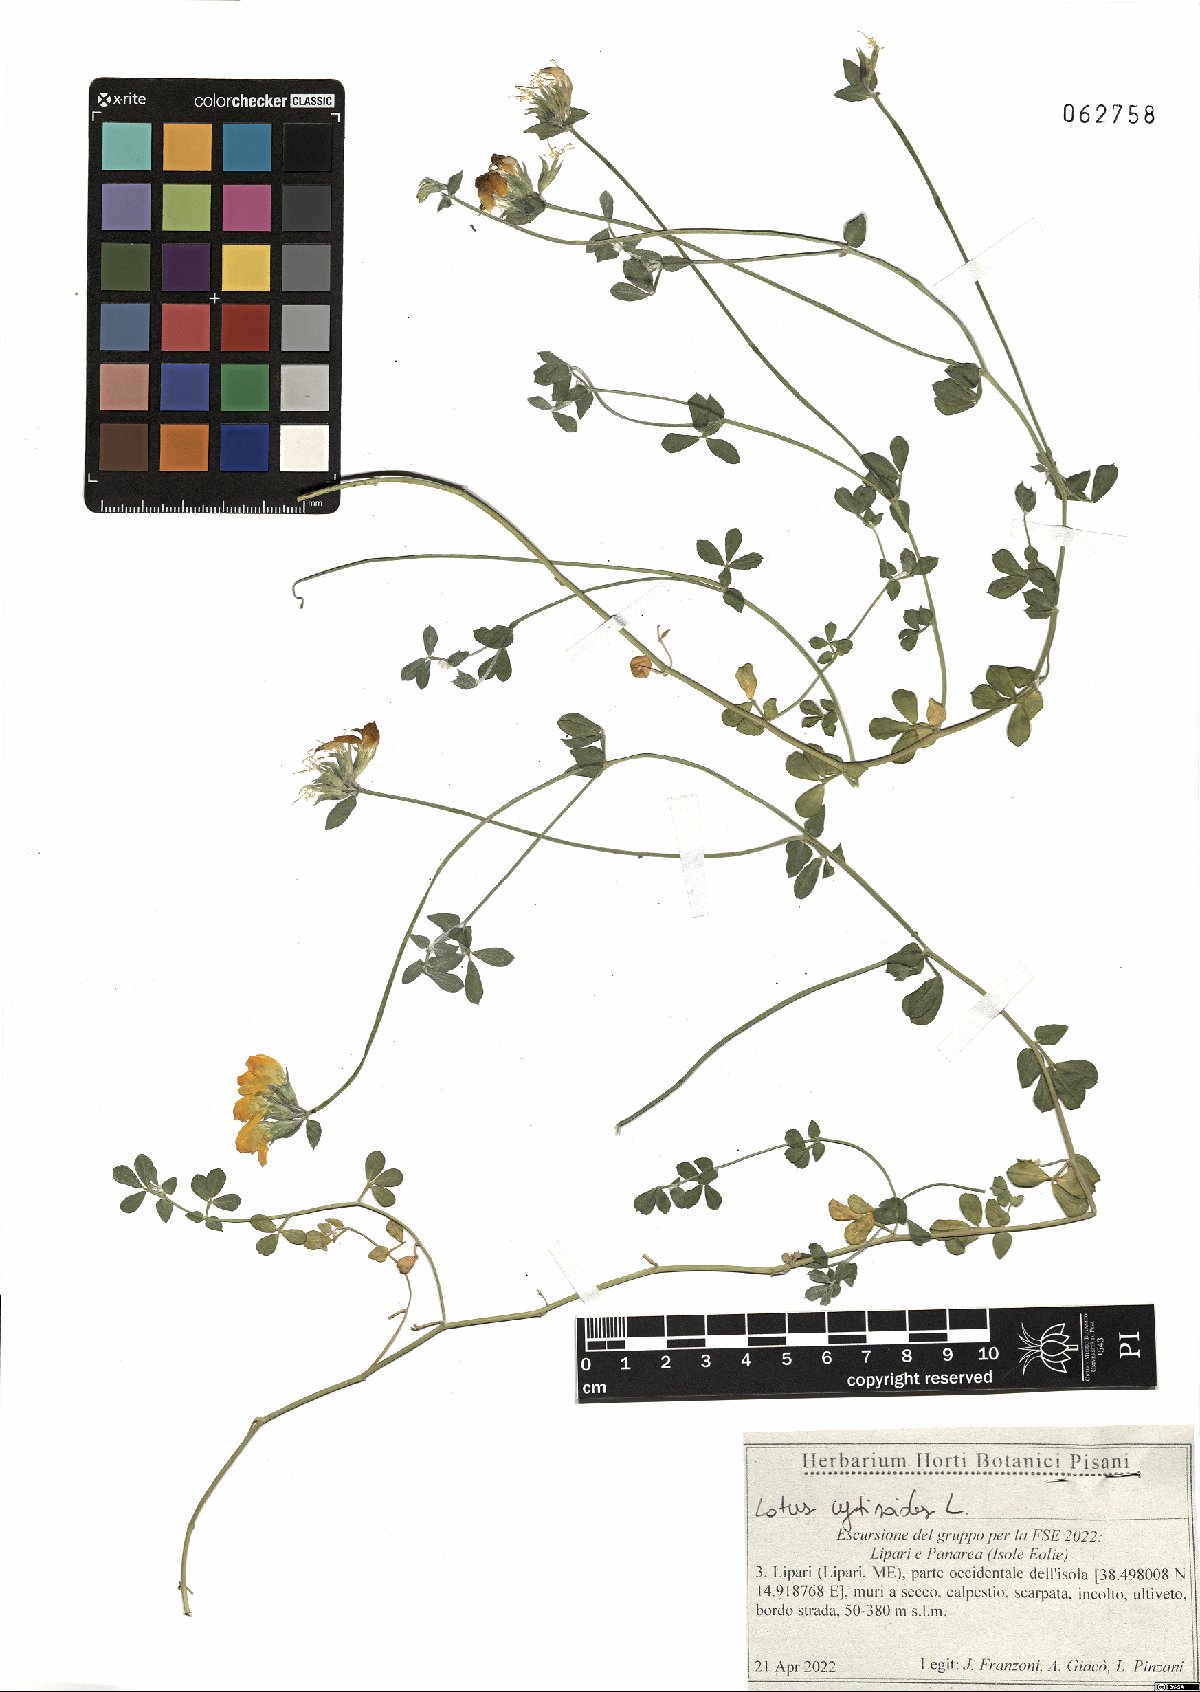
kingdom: Plantae
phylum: Tracheophyta
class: Magnoliopsida
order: Fabales
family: Fabaceae
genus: Lotus
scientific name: Lotus cytisoides
